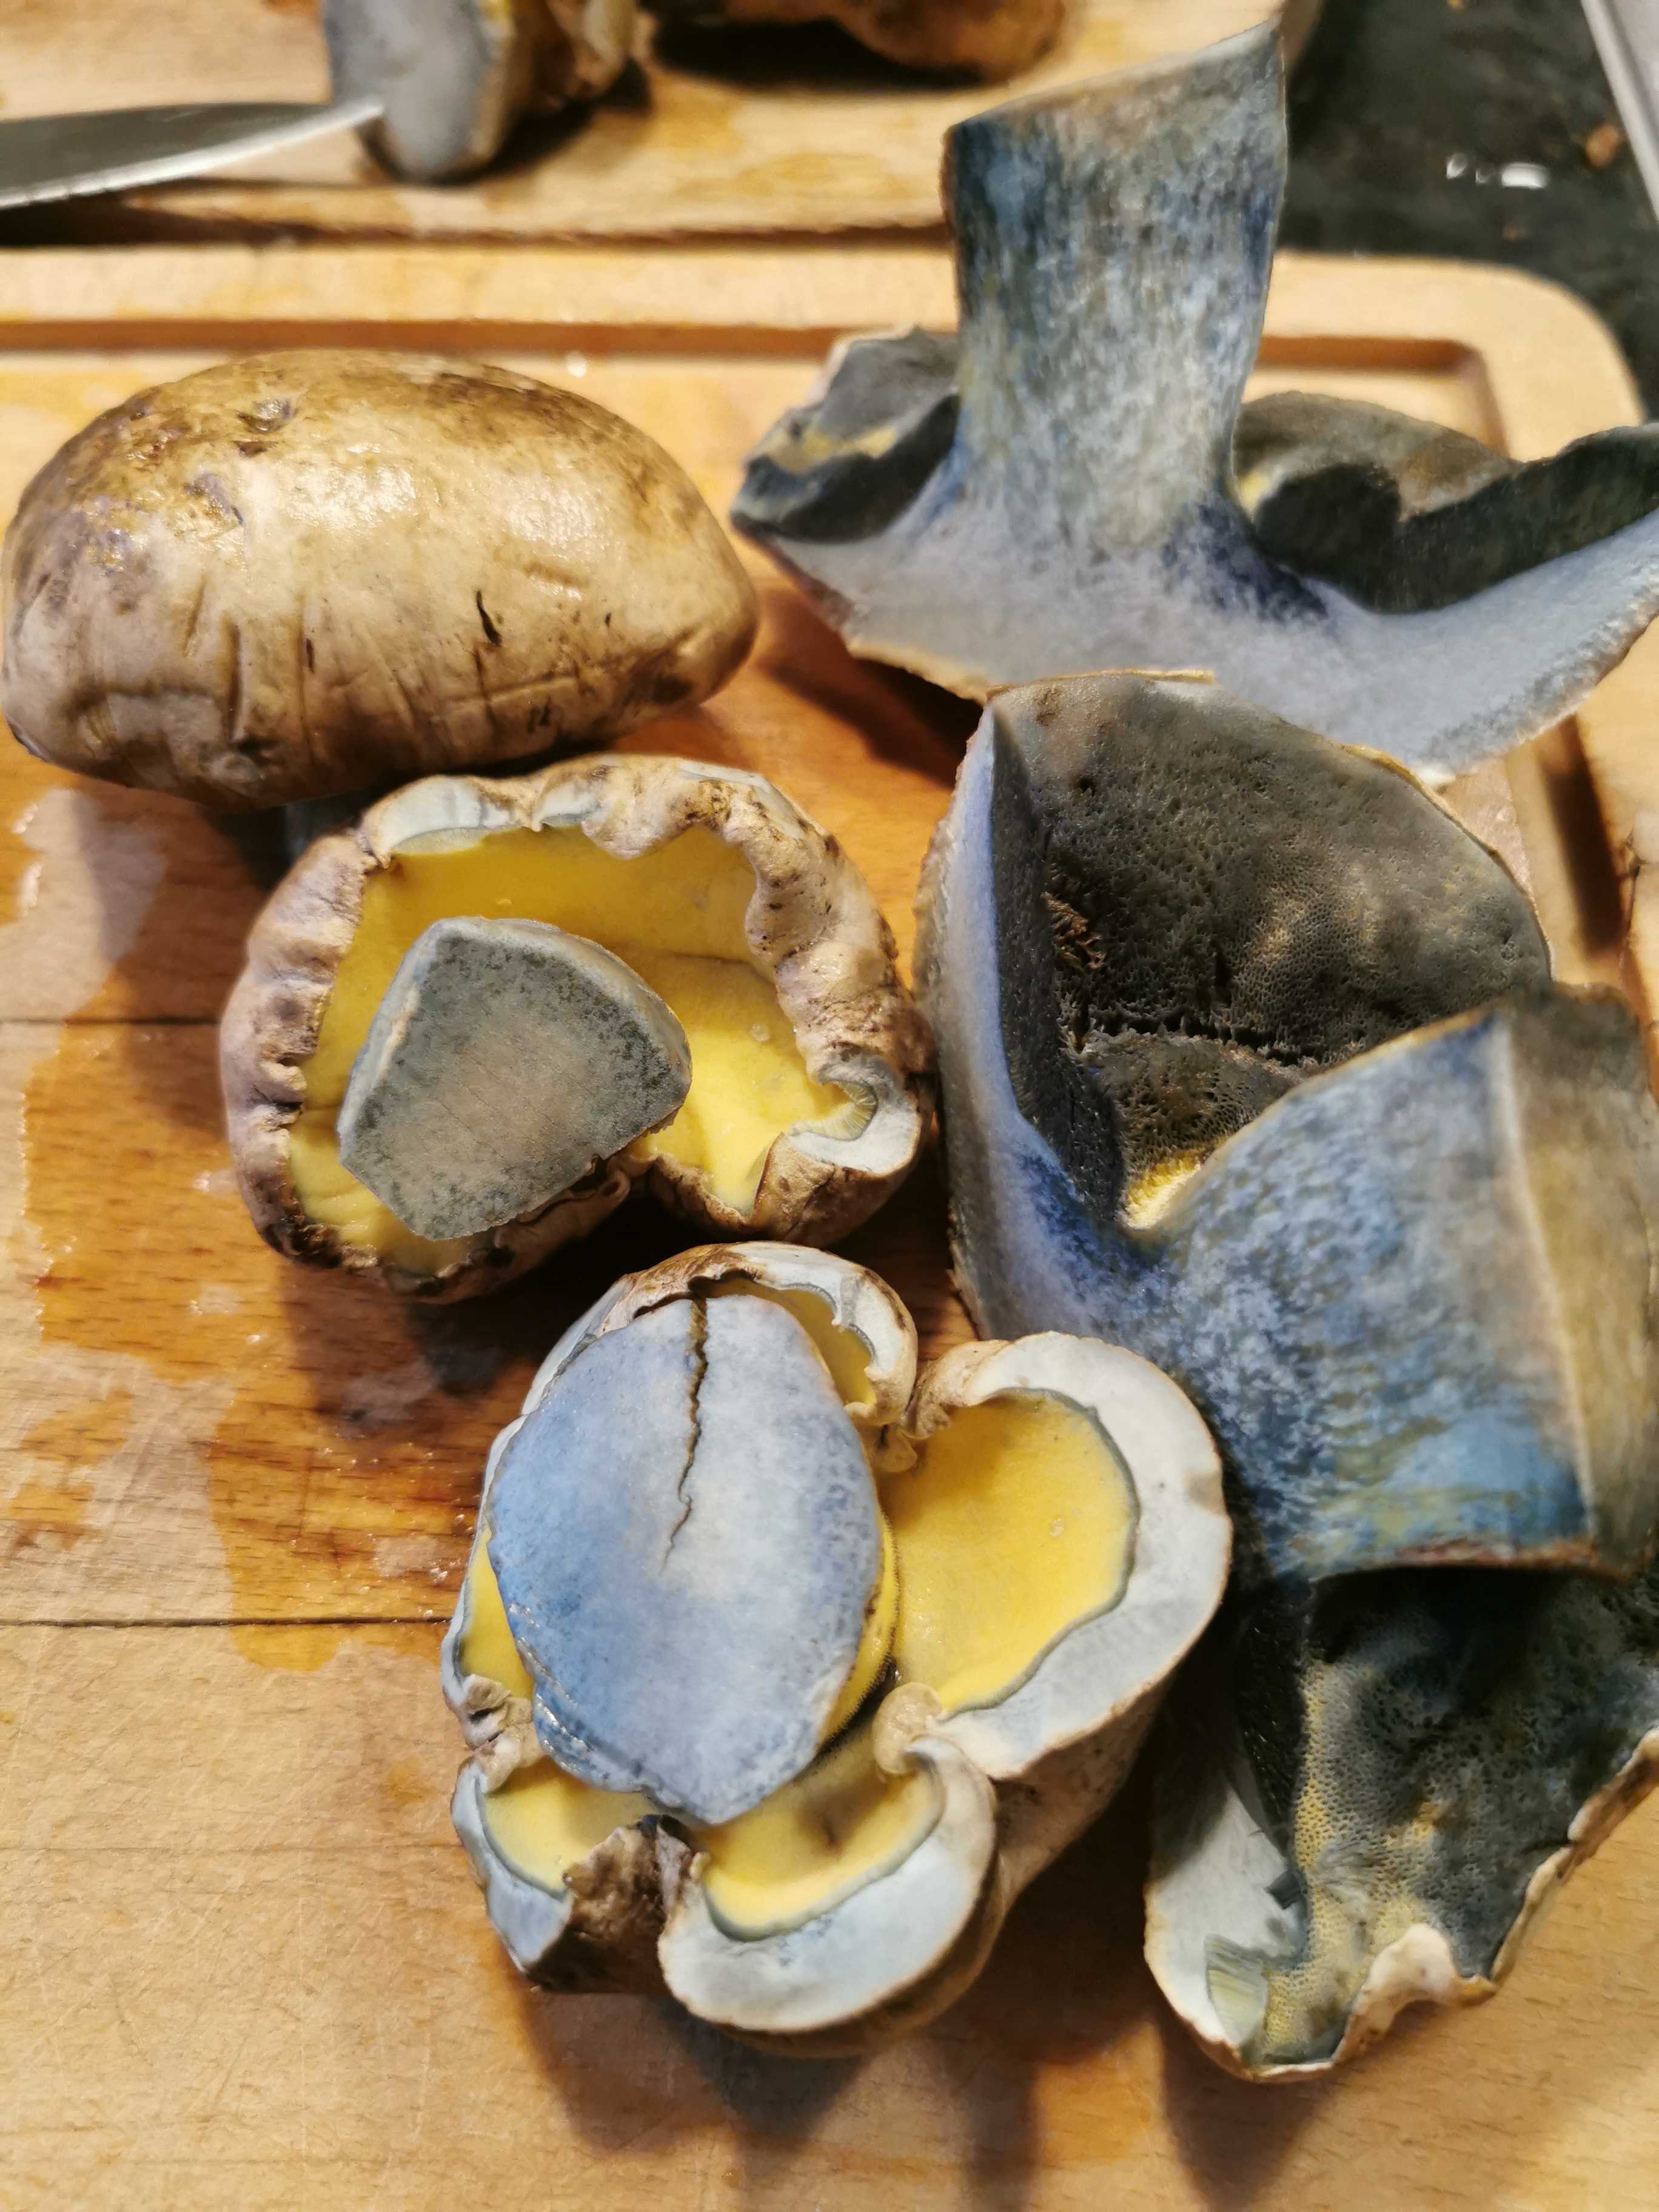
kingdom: Fungi
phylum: Basidiomycota
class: Agaricomycetes
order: Boletales
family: Boletaceae
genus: Caloboletus
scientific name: Caloboletus radicans
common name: rod-rørhat
